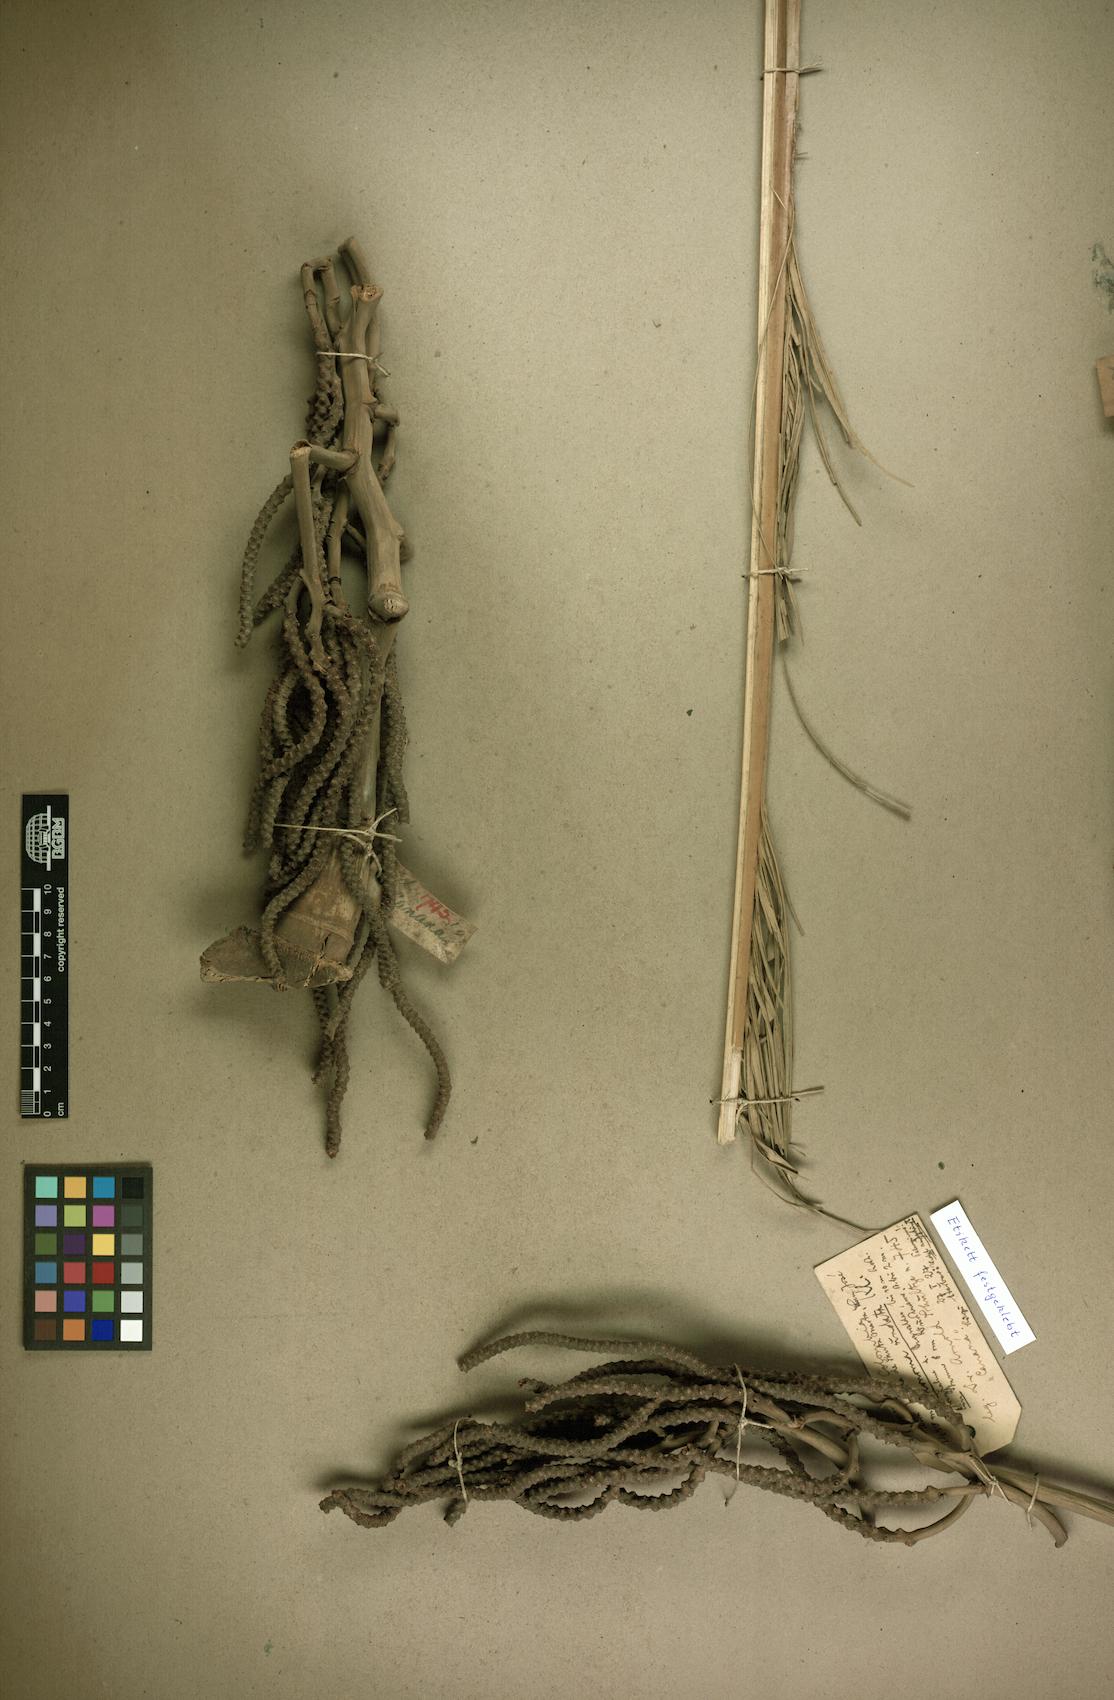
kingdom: Plantae
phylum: Tracheophyta
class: Liliopsida
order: Arecales
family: Arecaceae
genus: Geonoma
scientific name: Geonoma undata
